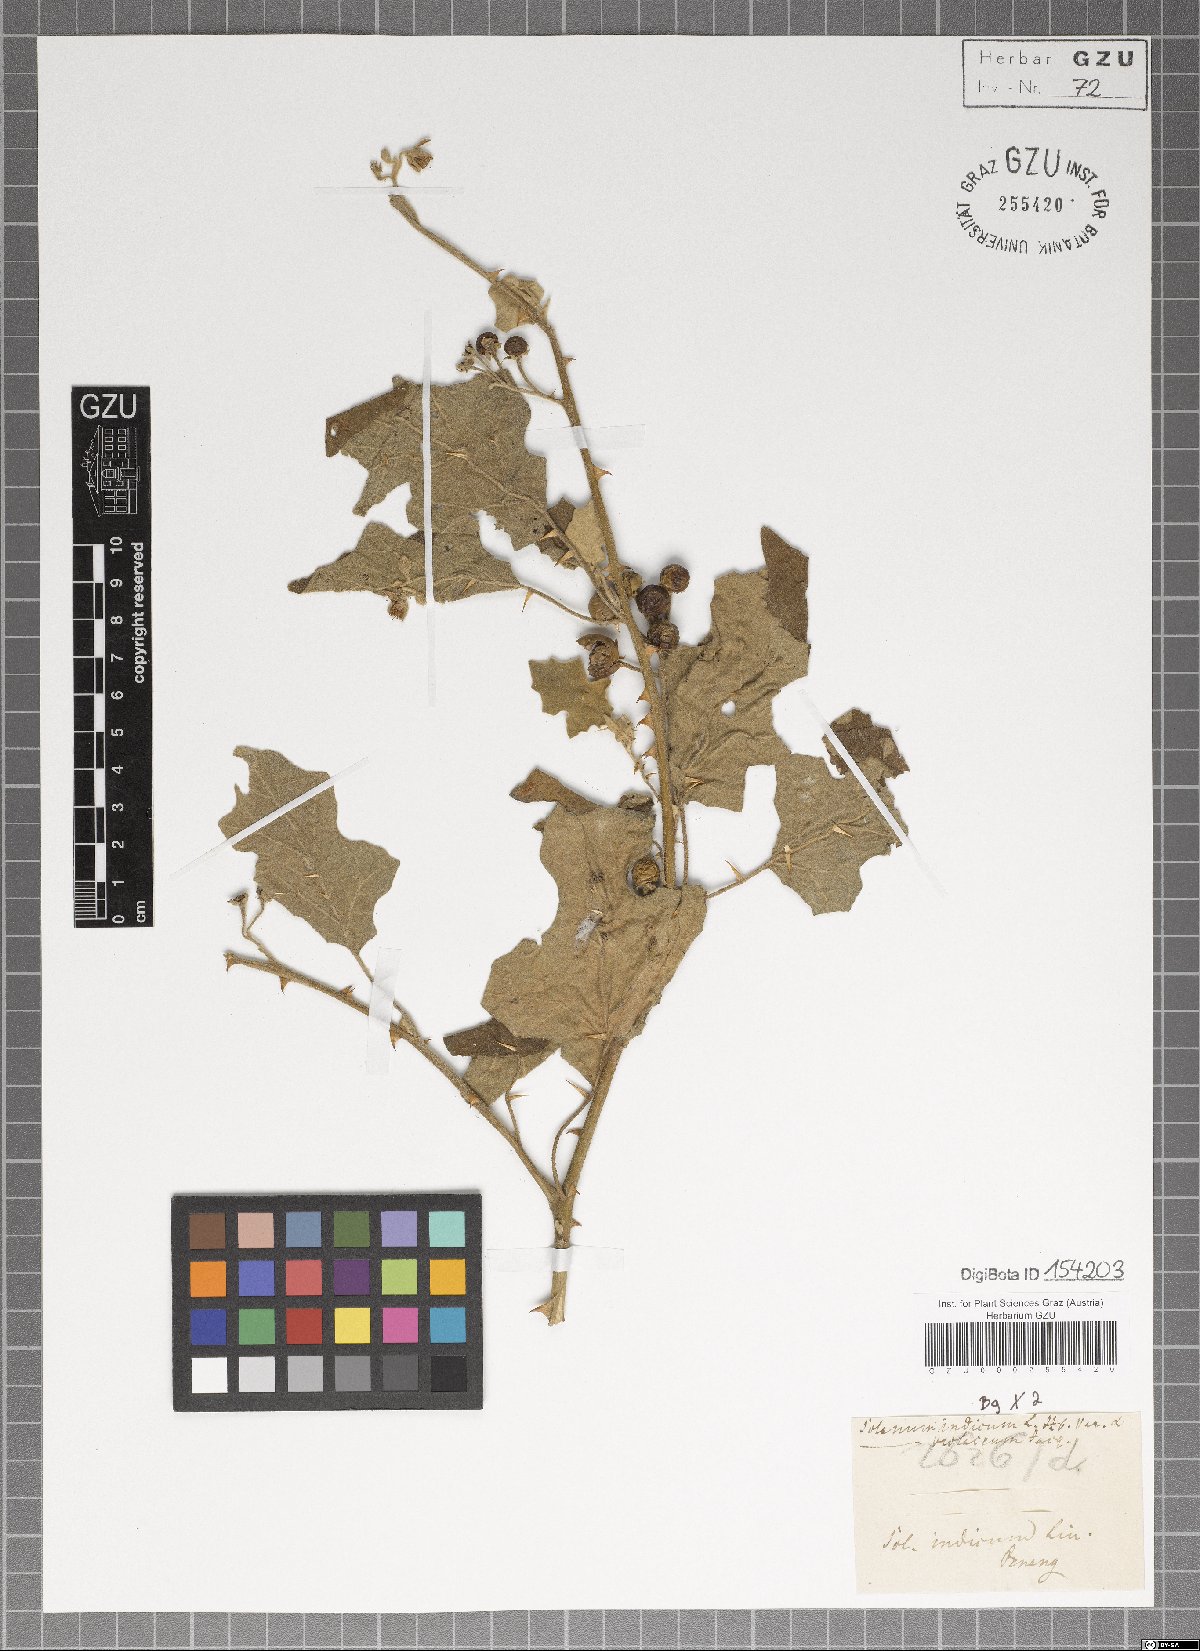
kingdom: Plantae
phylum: Tracheophyta
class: Magnoliopsida
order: Solanales
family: Solanaceae
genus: Solanum
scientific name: Solanum violaceum
